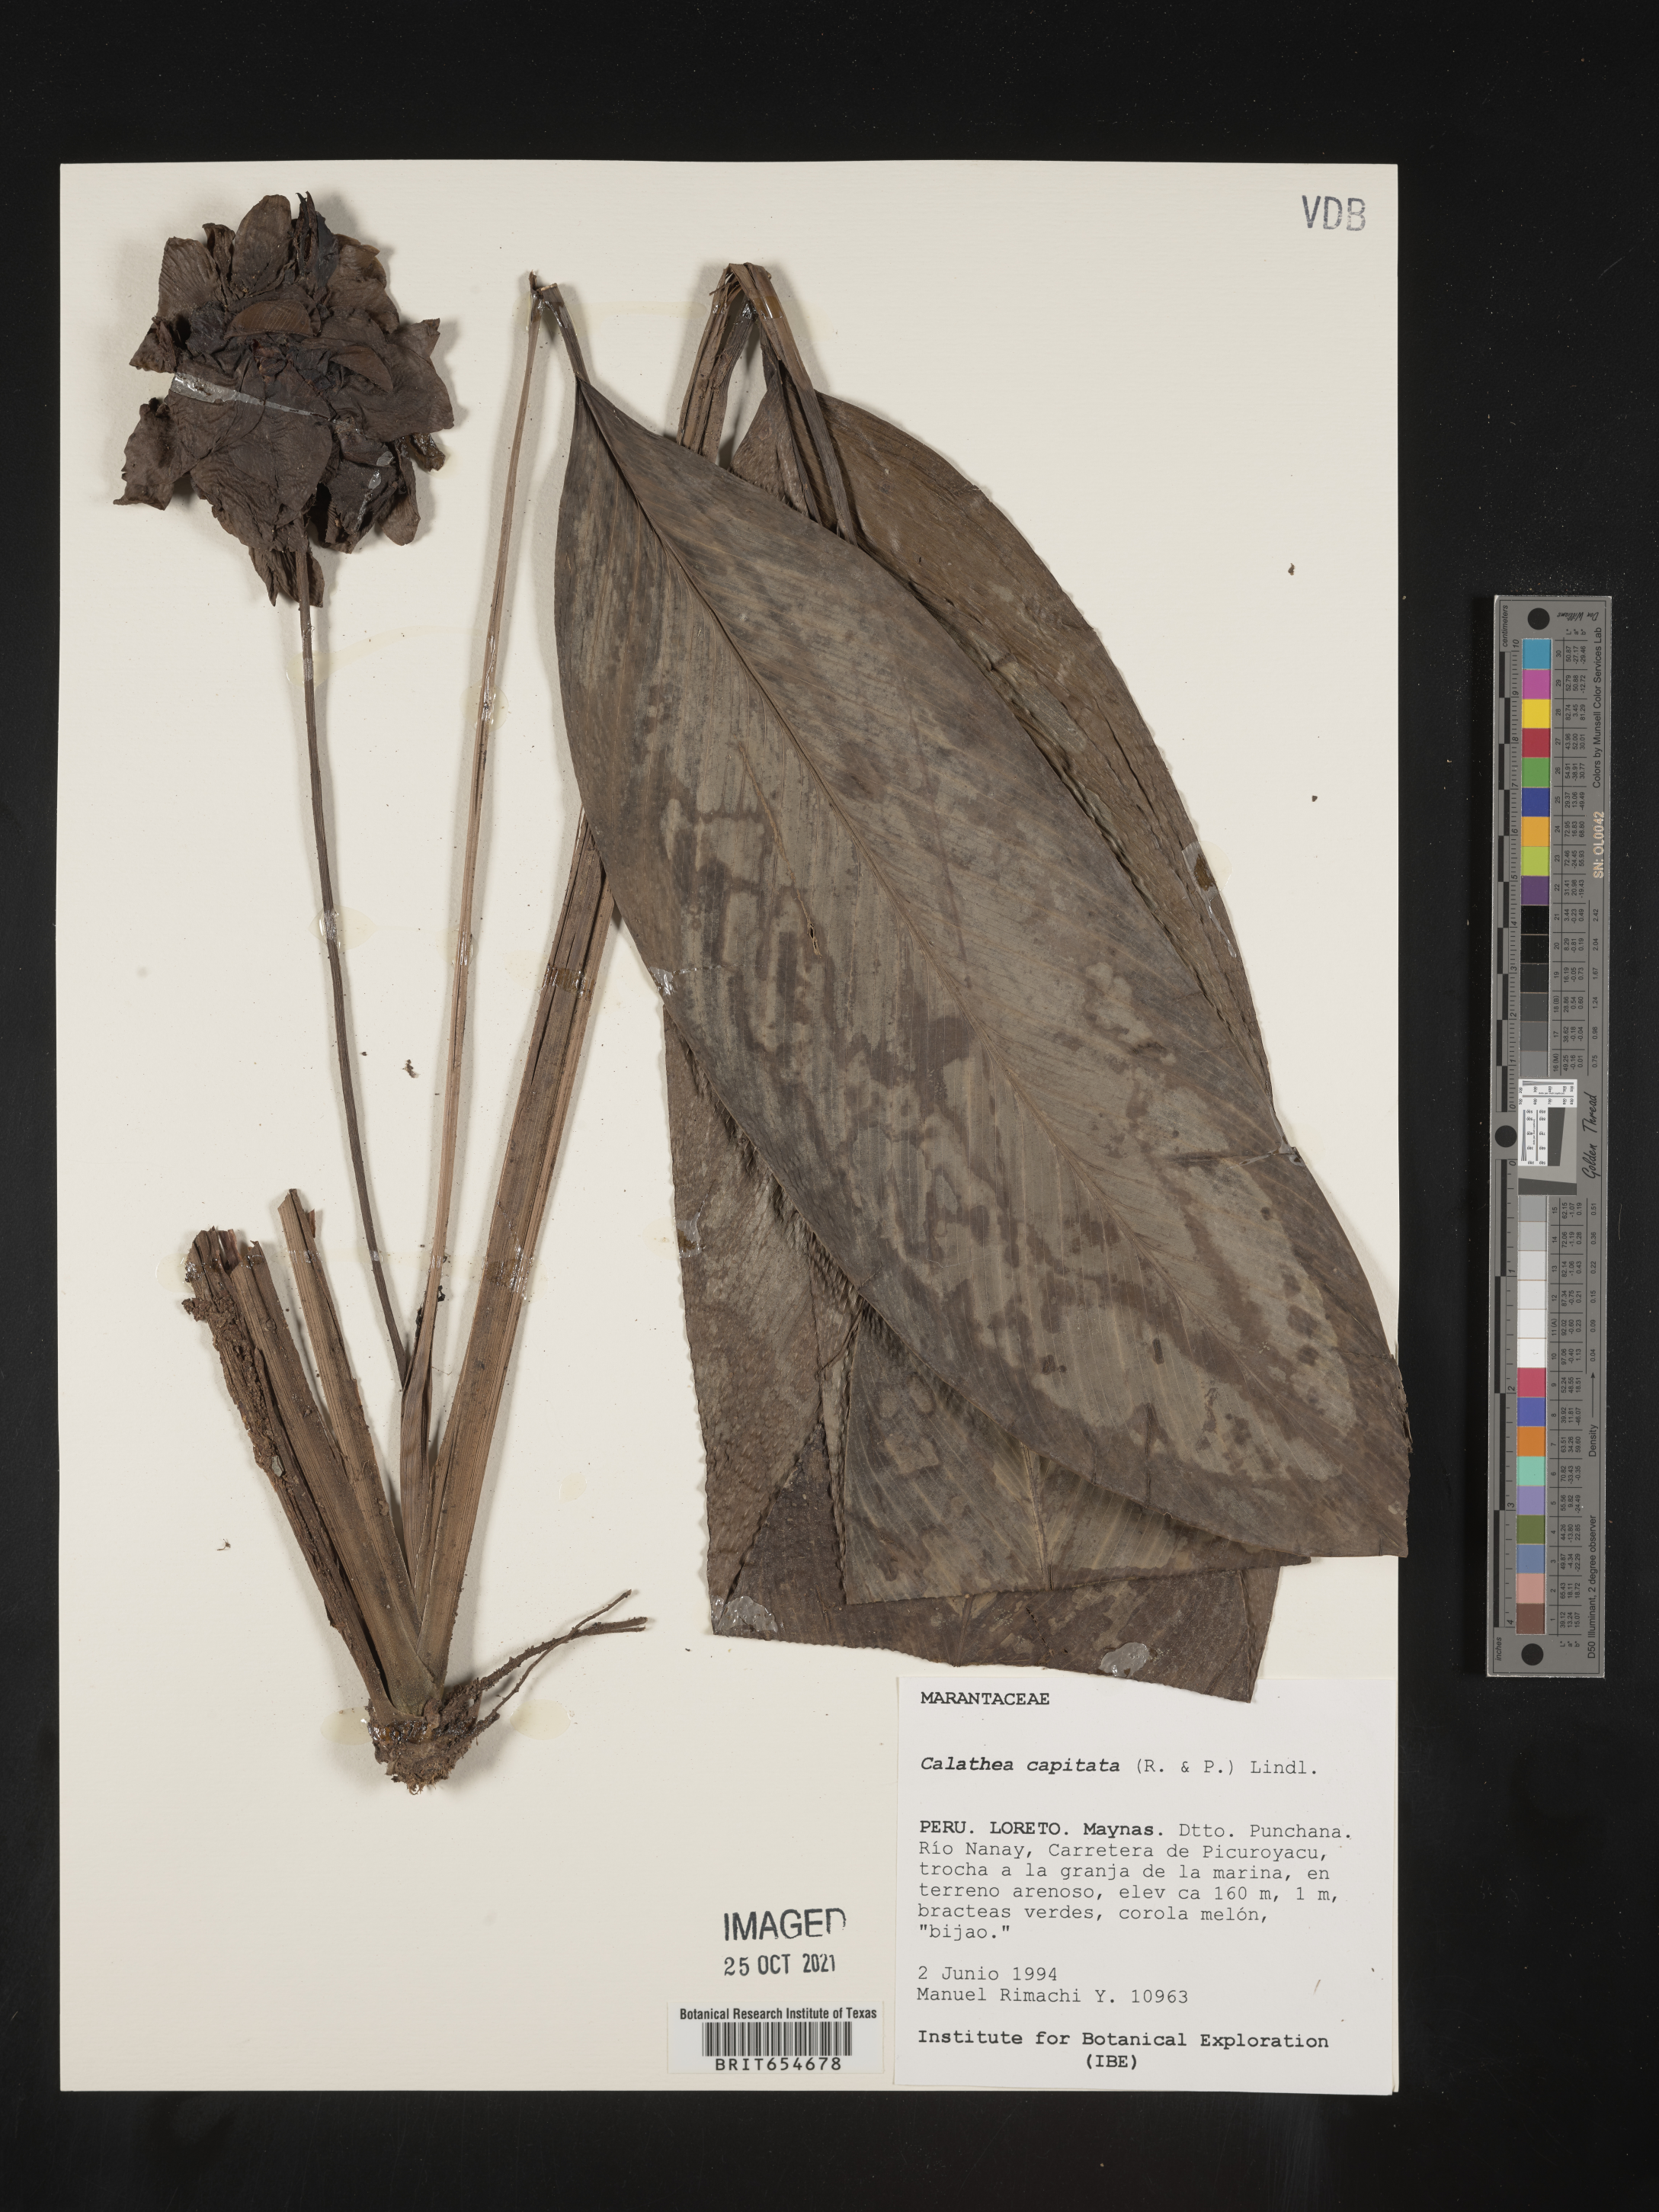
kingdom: Plantae
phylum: Tracheophyta
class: Liliopsida
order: Zingiberales
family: Marantaceae
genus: Calathea
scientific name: Calathea
